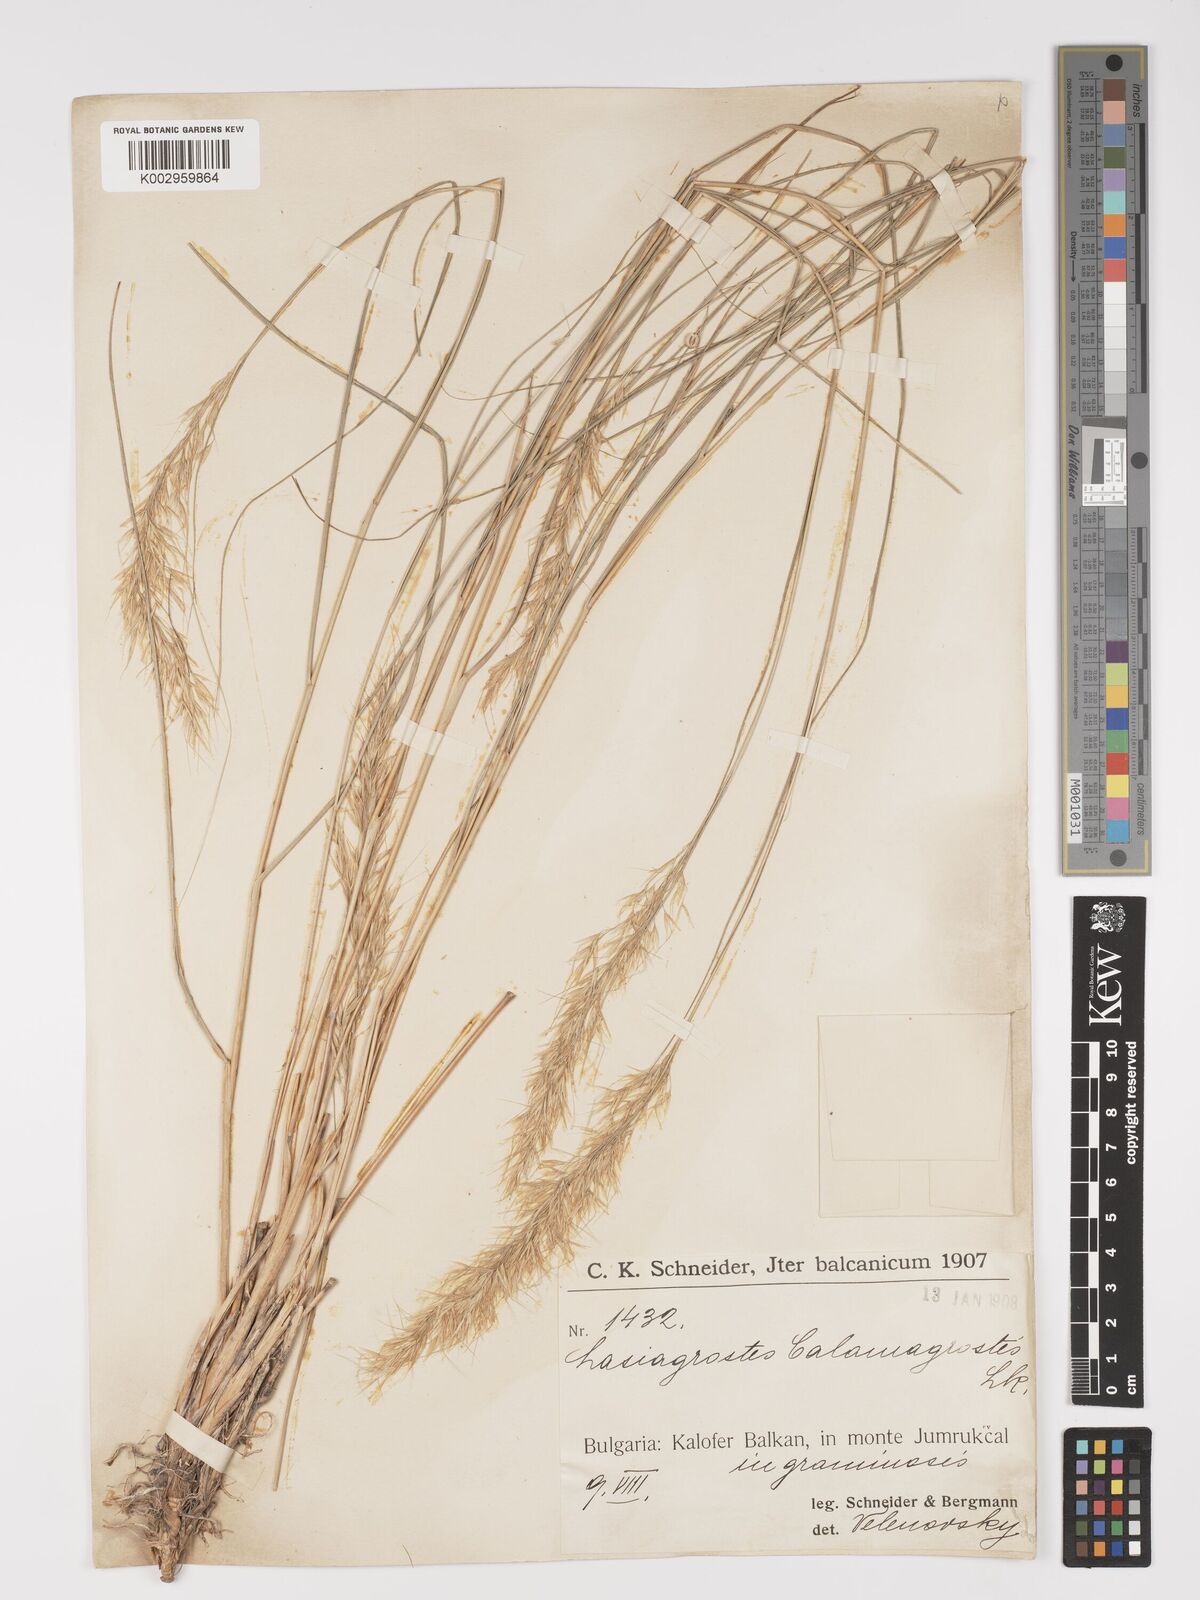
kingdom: Plantae
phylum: Tracheophyta
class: Liliopsida
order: Poales
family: Poaceae
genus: Achnatherum
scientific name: Achnatherum calamagrostis
